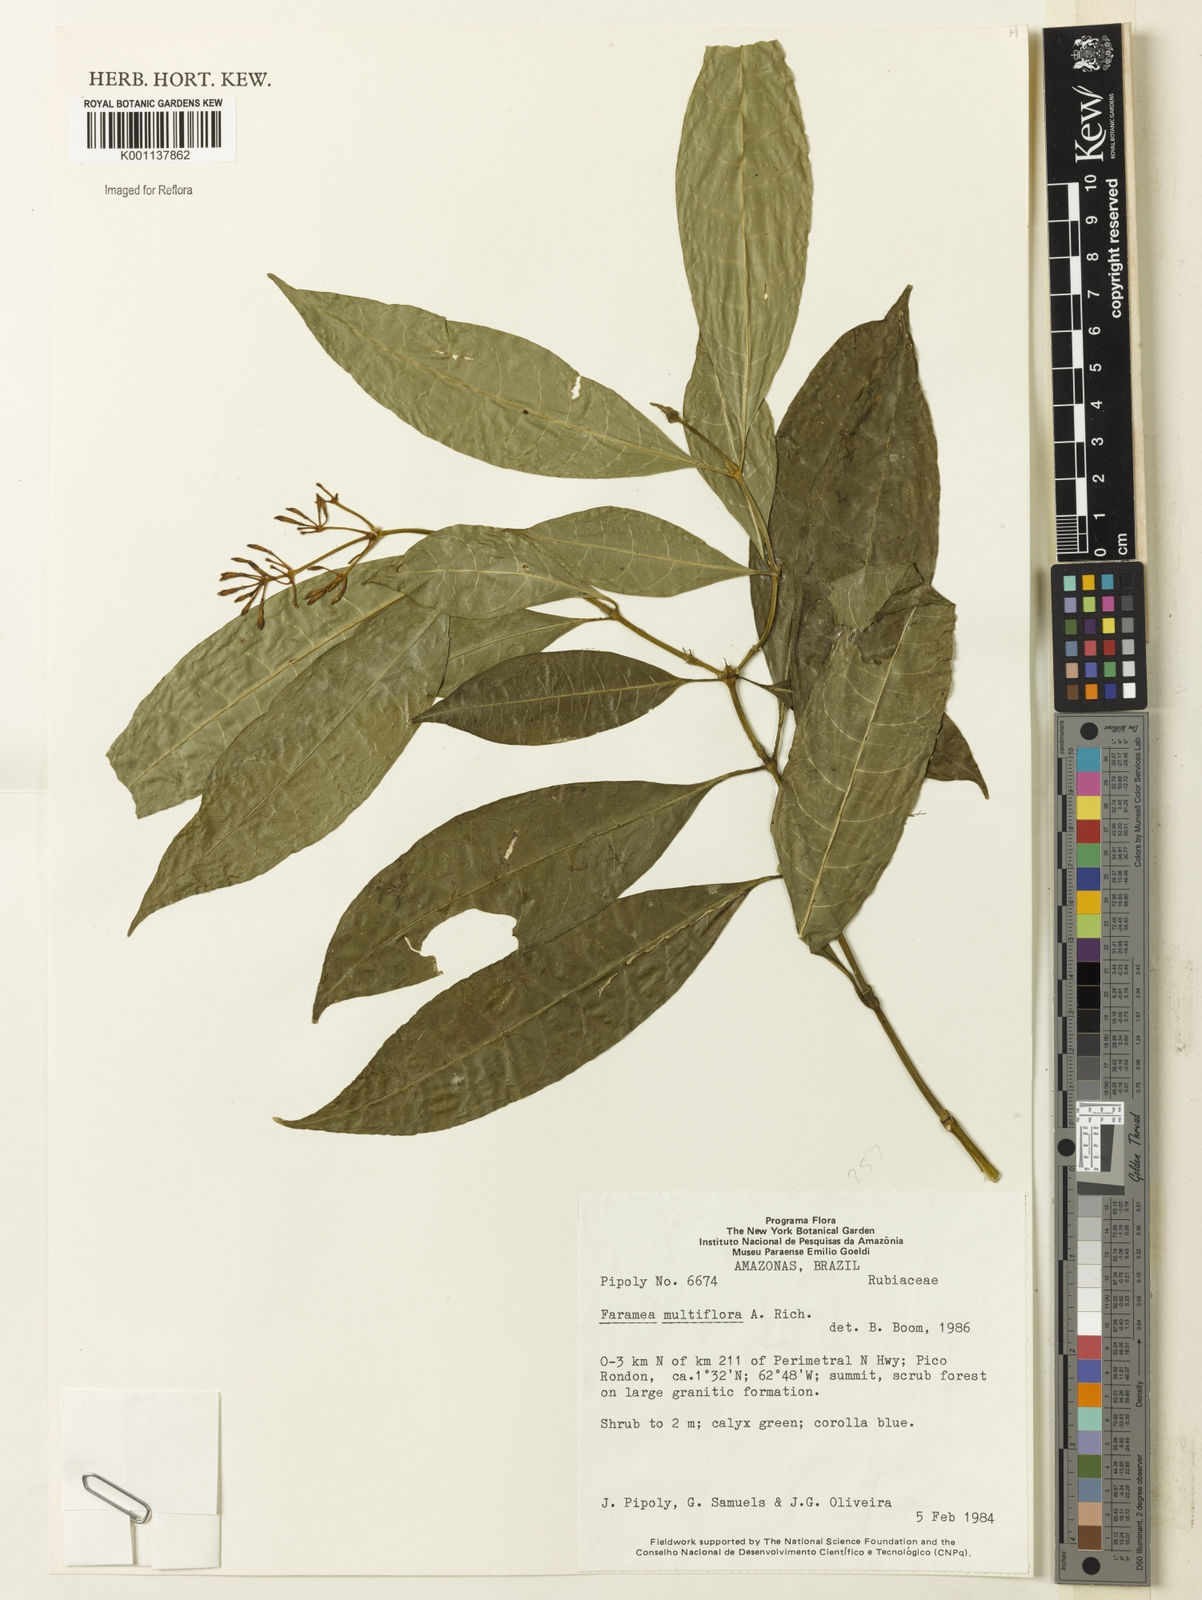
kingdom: Plantae
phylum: Tracheophyta
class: Magnoliopsida
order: Gentianales
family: Rubiaceae
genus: Faramea
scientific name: Faramea multiflora
